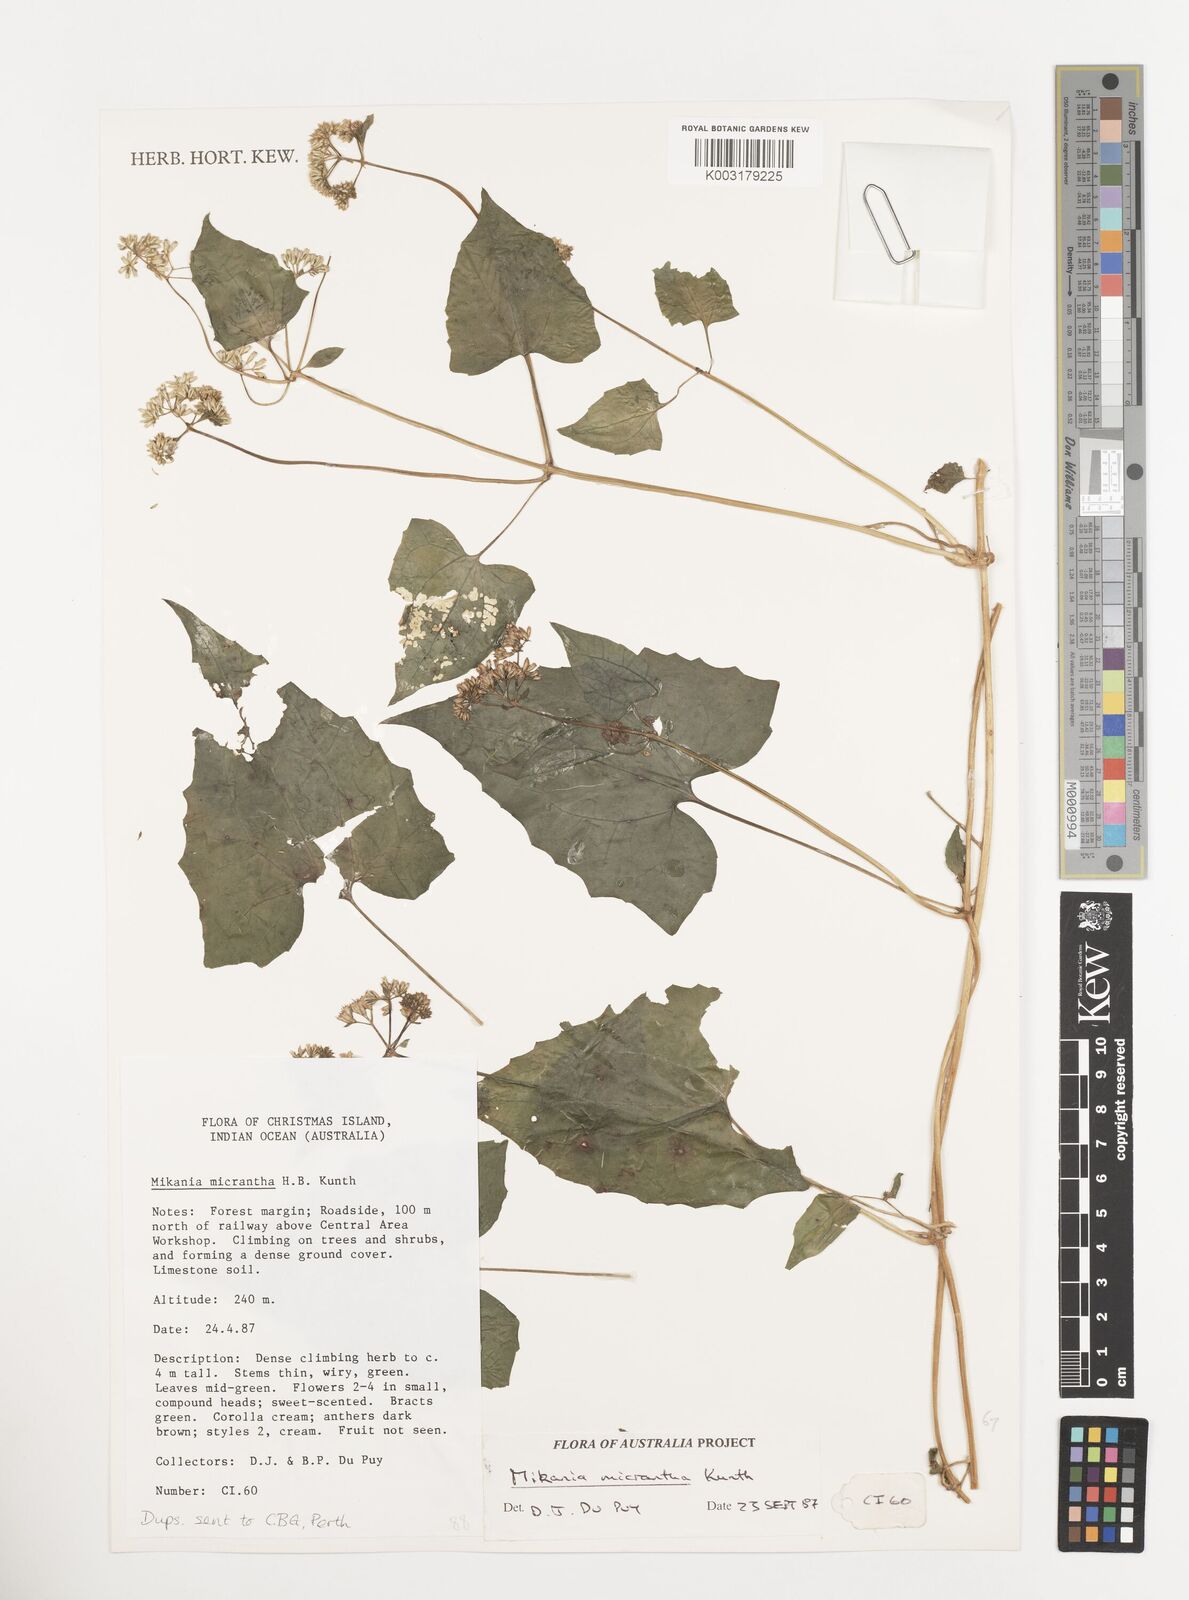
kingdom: Plantae
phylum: Tracheophyta
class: Magnoliopsida
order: Asterales
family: Asteraceae
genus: Mikania
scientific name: Mikania
